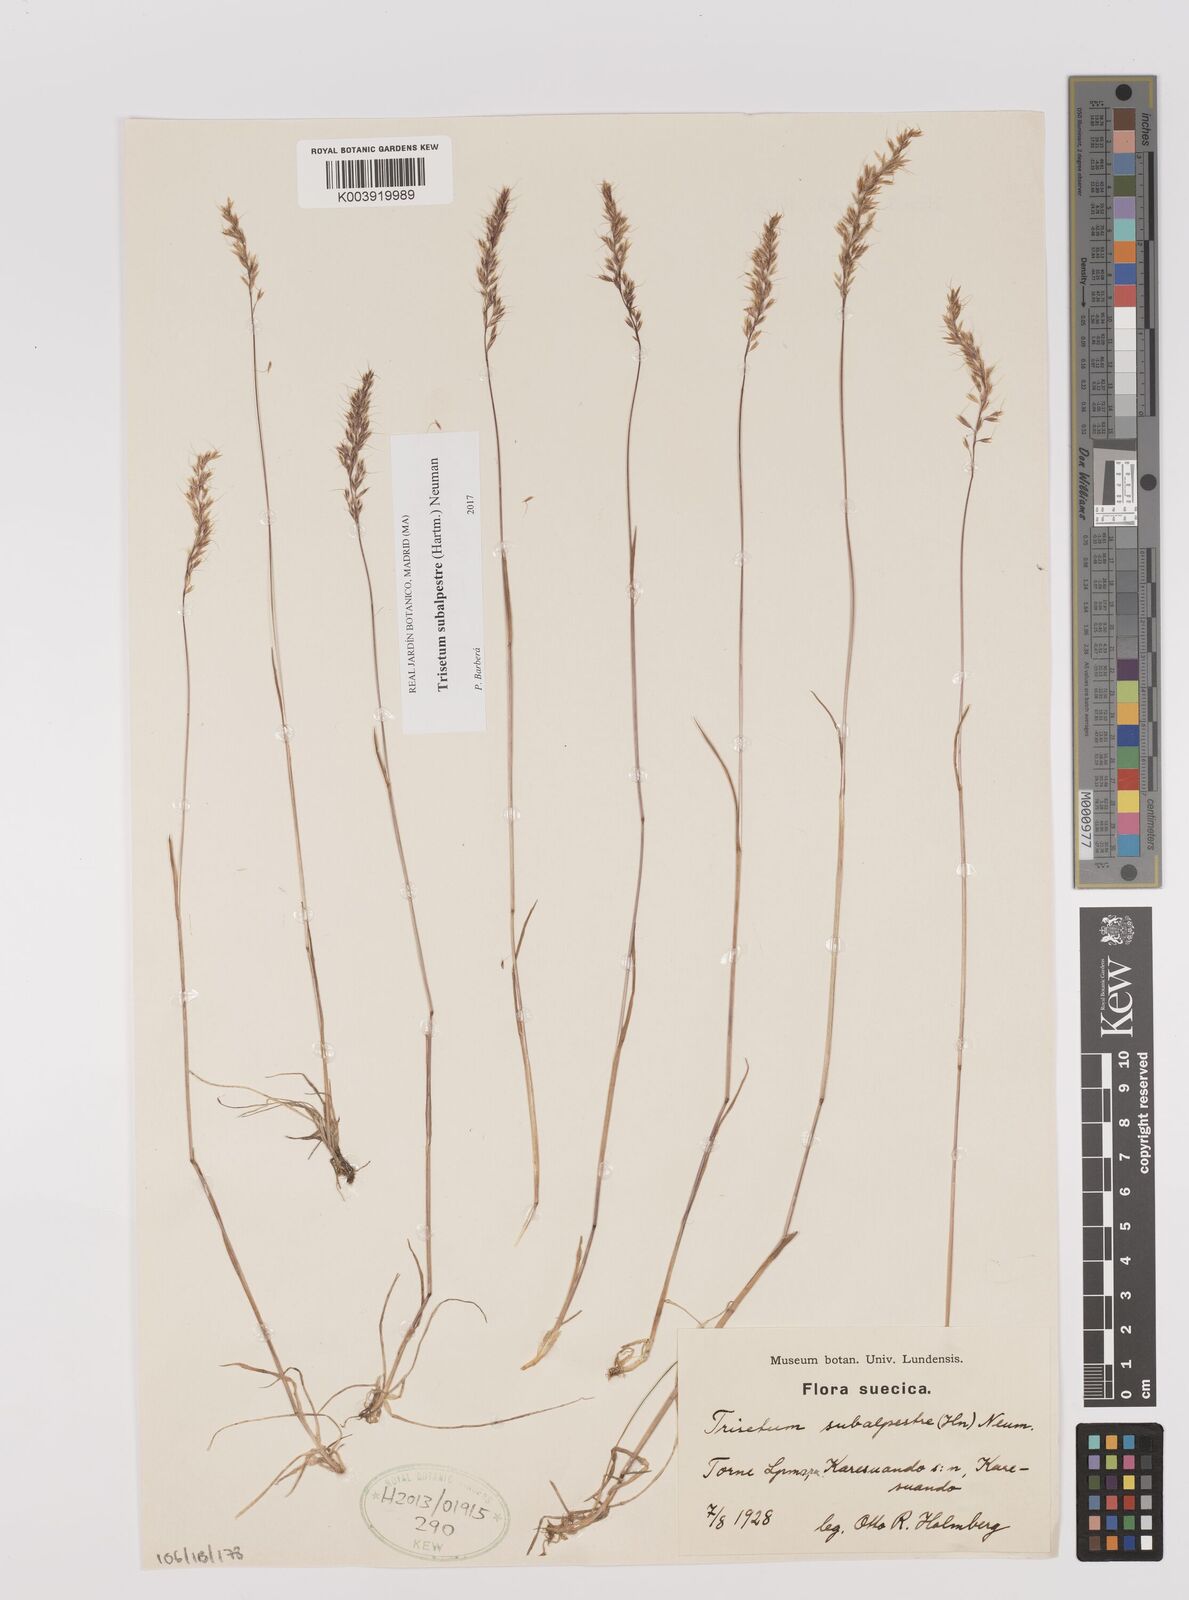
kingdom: Plantae
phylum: Tracheophyta
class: Liliopsida
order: Poales
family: Poaceae
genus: Koeleria
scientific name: Koeleria subalpestris
